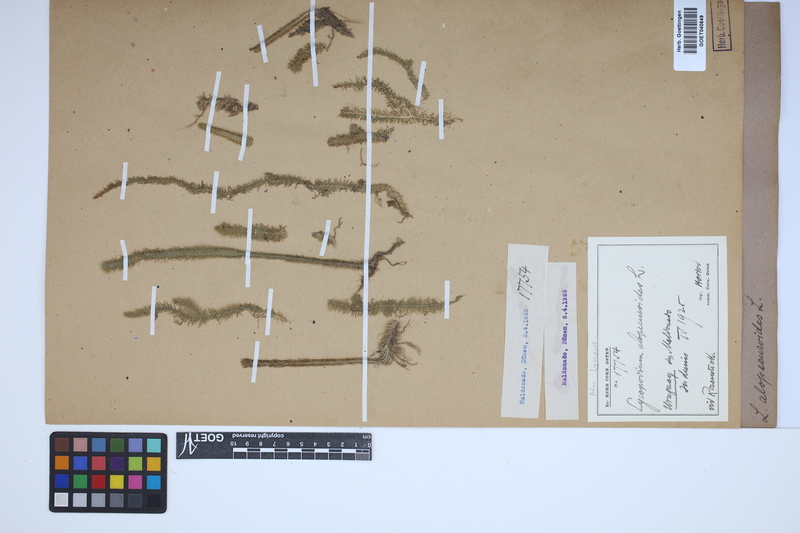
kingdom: Plantae
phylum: Tracheophyta
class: Lycopodiopsida
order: Lycopodiales
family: Lycopodiaceae
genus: Lycopodiella
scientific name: Lycopodiella alopecuroides
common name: Foxtail clubmoss
